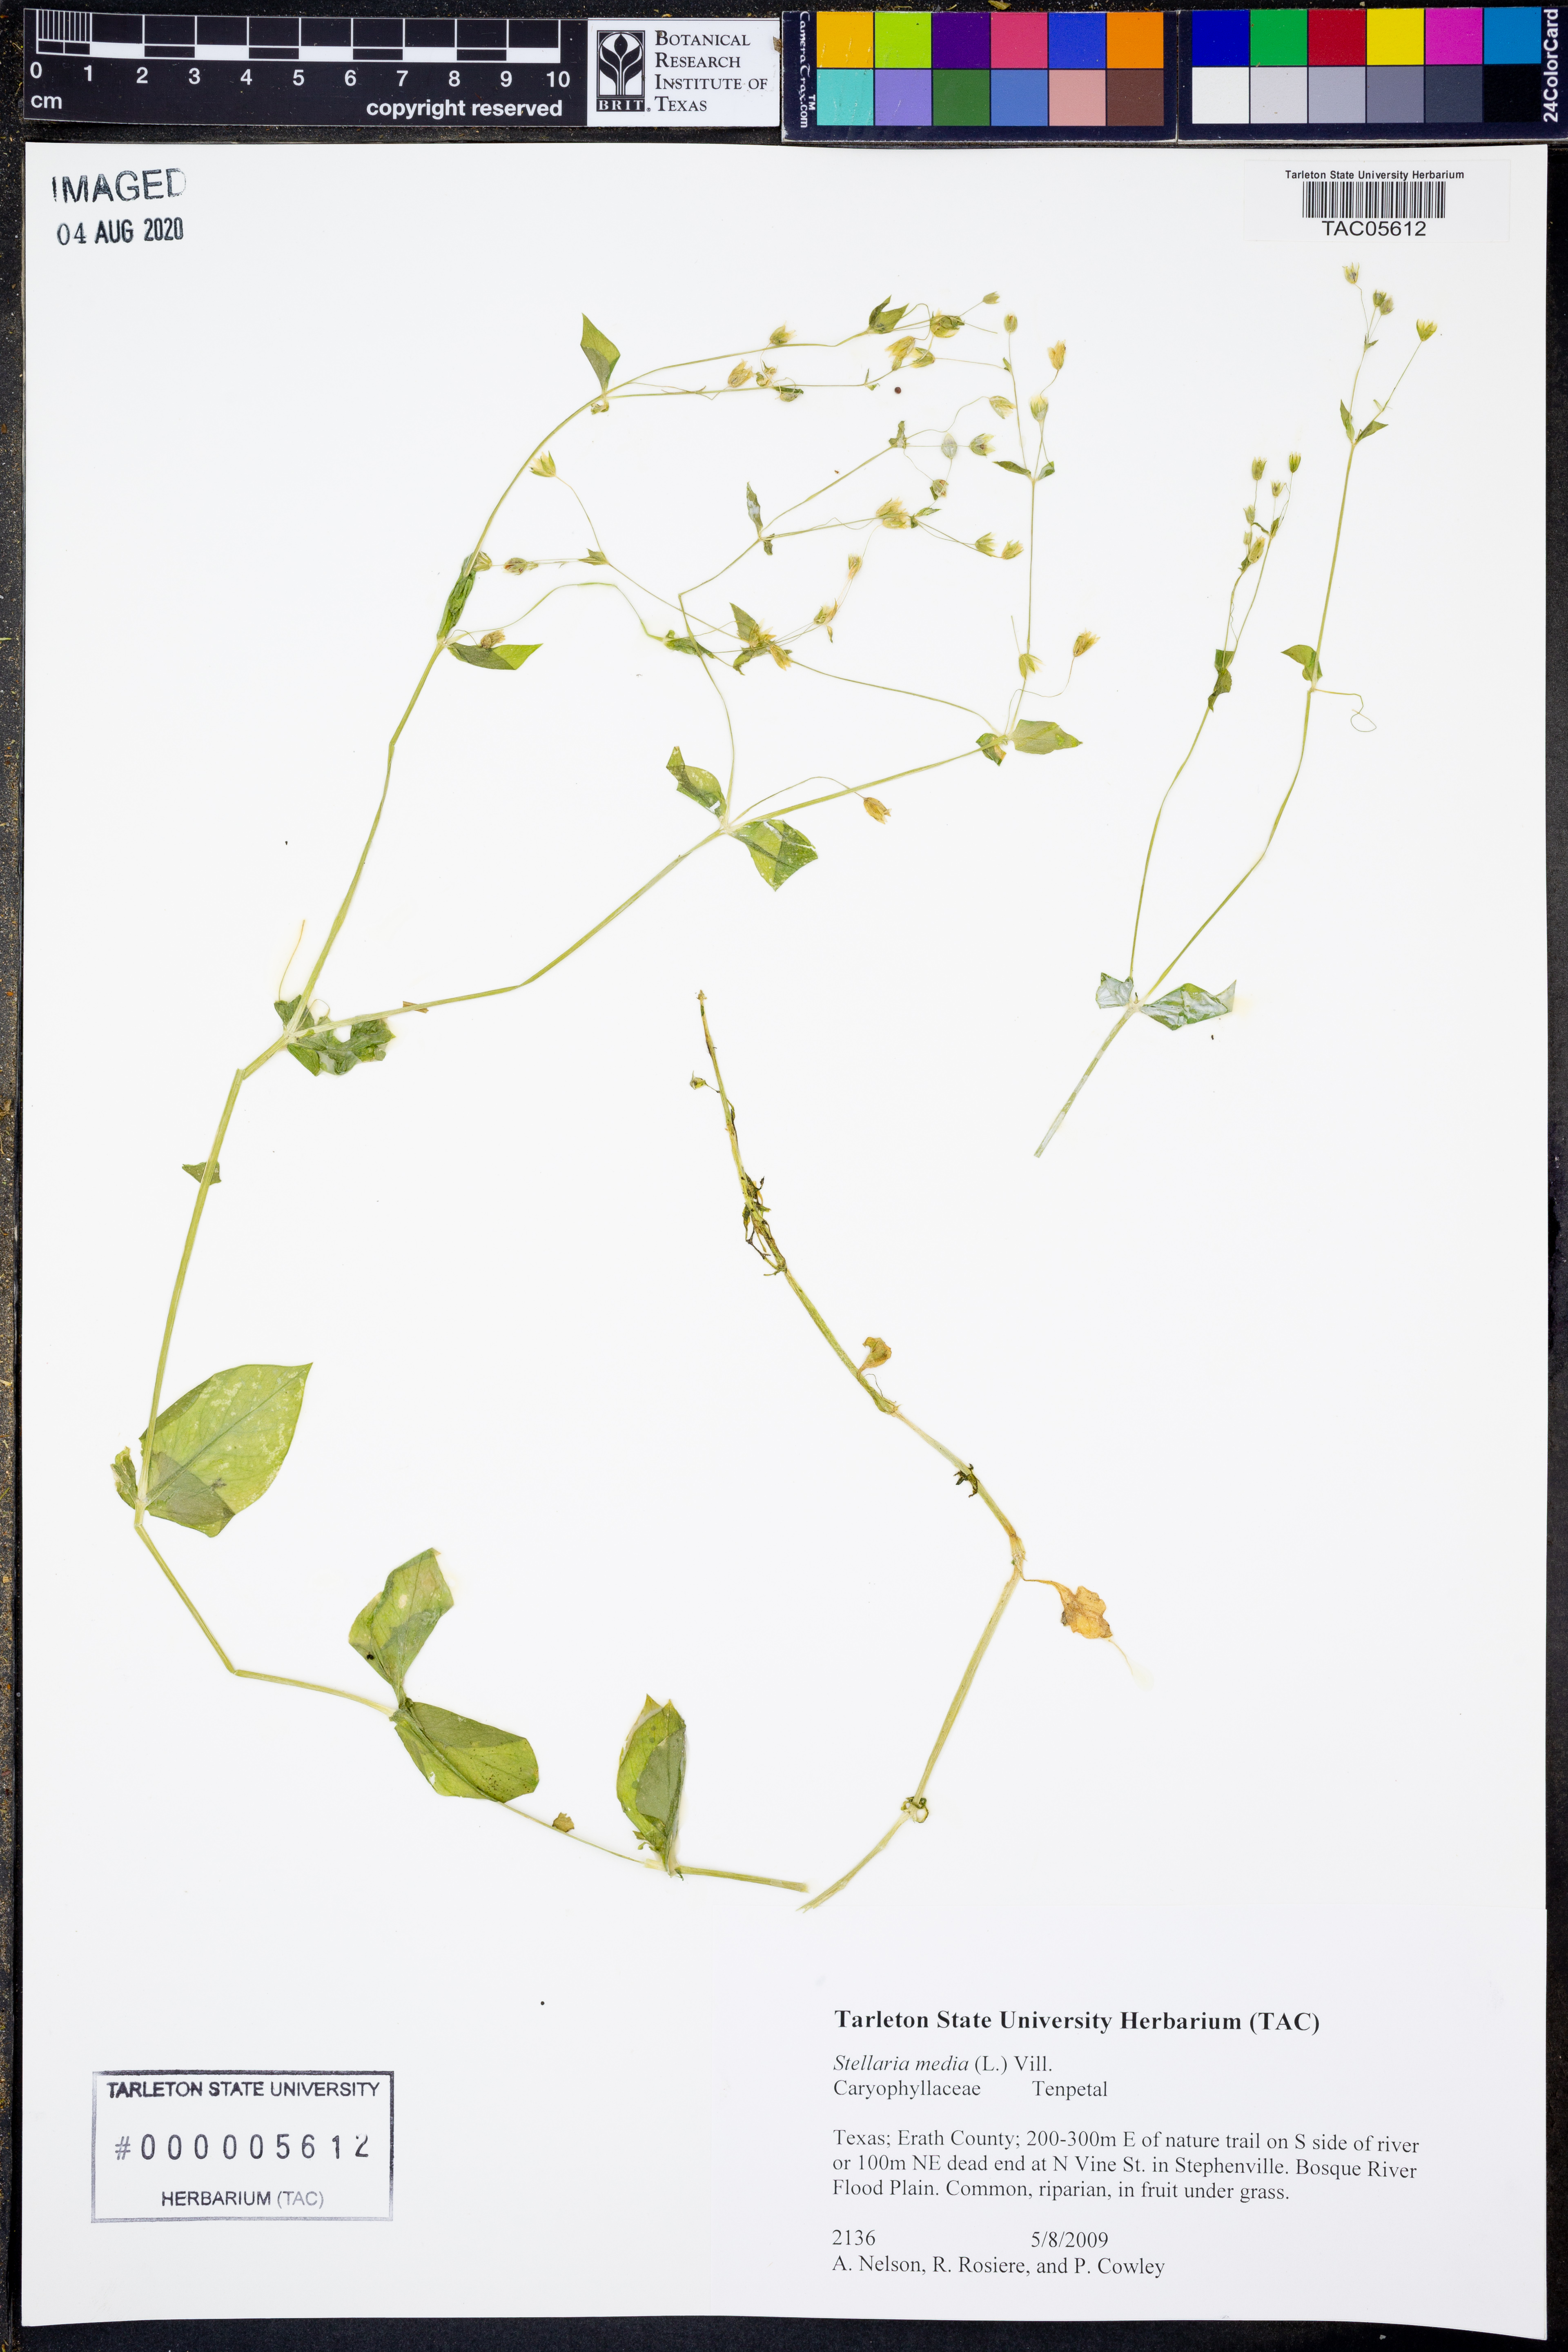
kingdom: Plantae
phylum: Tracheophyta
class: Magnoliopsida
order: Caryophyllales
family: Caryophyllaceae
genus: Stellaria
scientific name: Stellaria media
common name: Common chickweed
